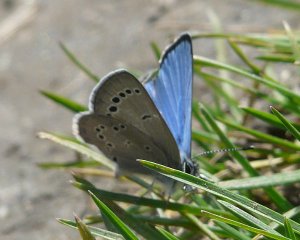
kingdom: Animalia
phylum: Arthropoda
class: Insecta
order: Lepidoptera
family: Lycaenidae
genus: Glaucopsyche
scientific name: Glaucopsyche lygdamus
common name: Silvery Blue
